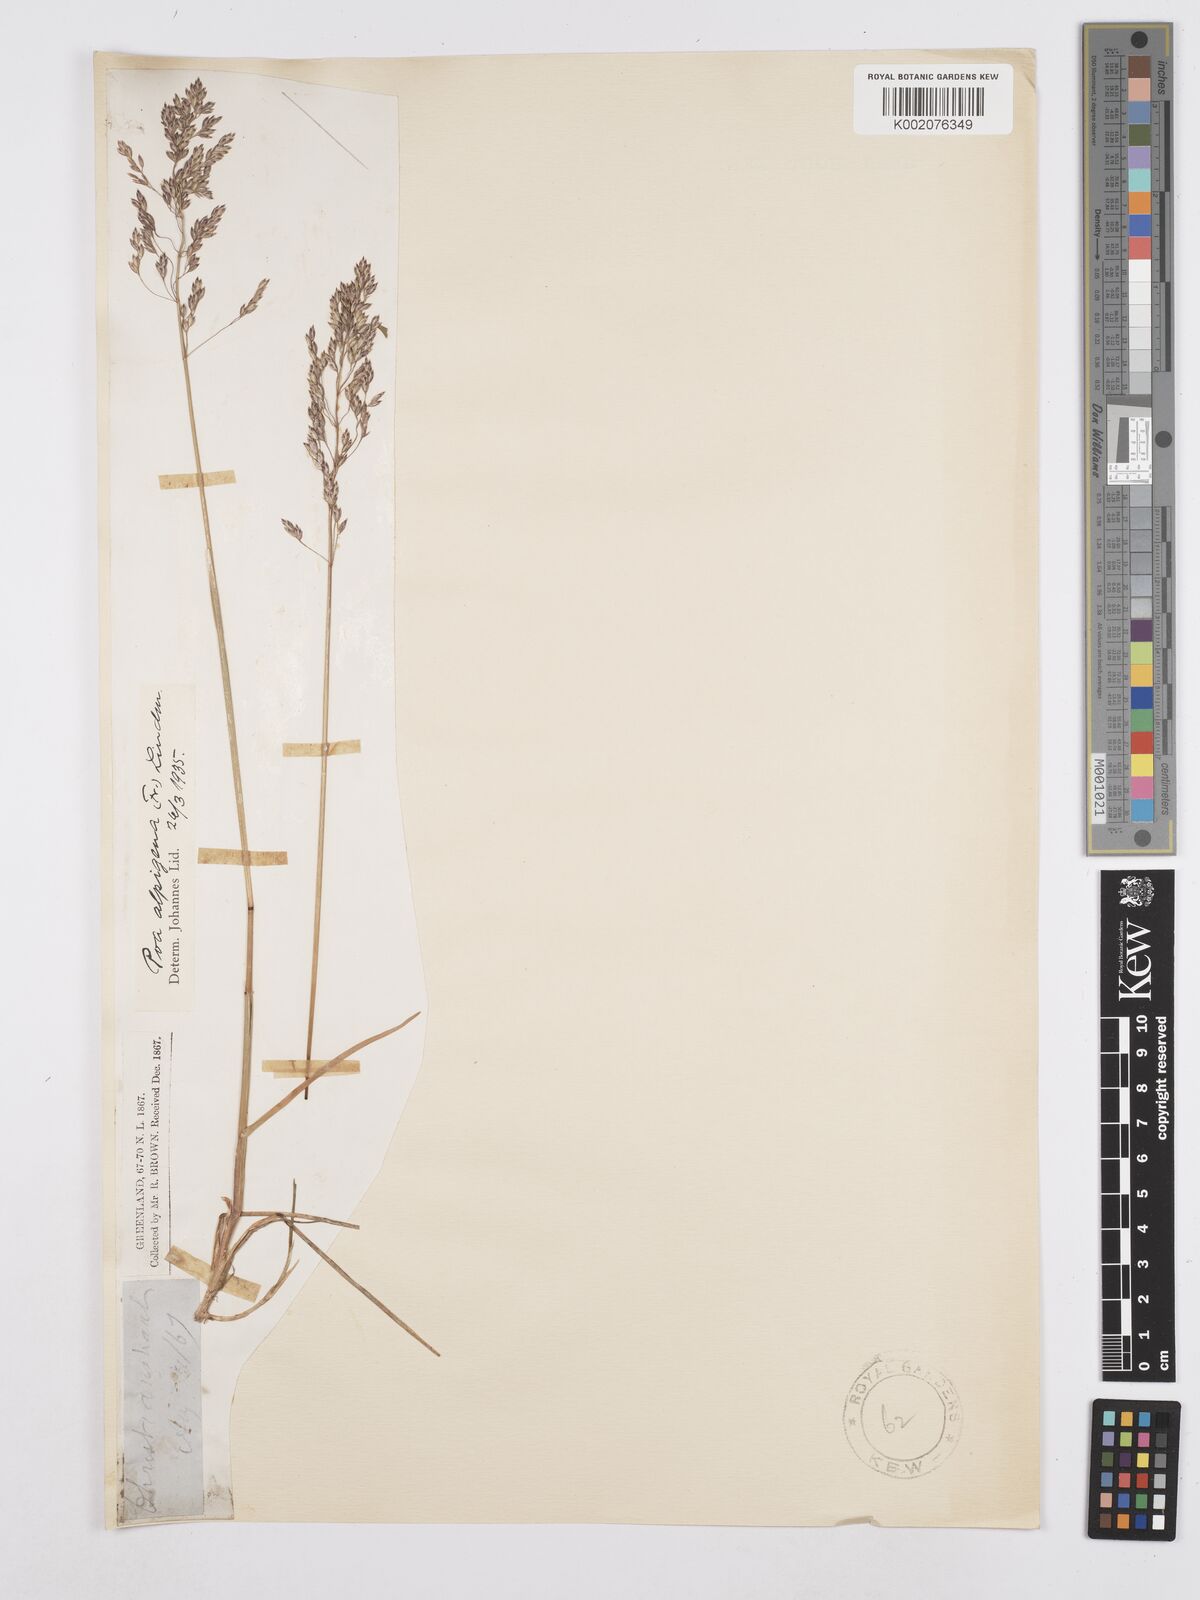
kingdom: Plantae
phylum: Tracheophyta
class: Liliopsida
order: Poales
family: Poaceae
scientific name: Poaceae
